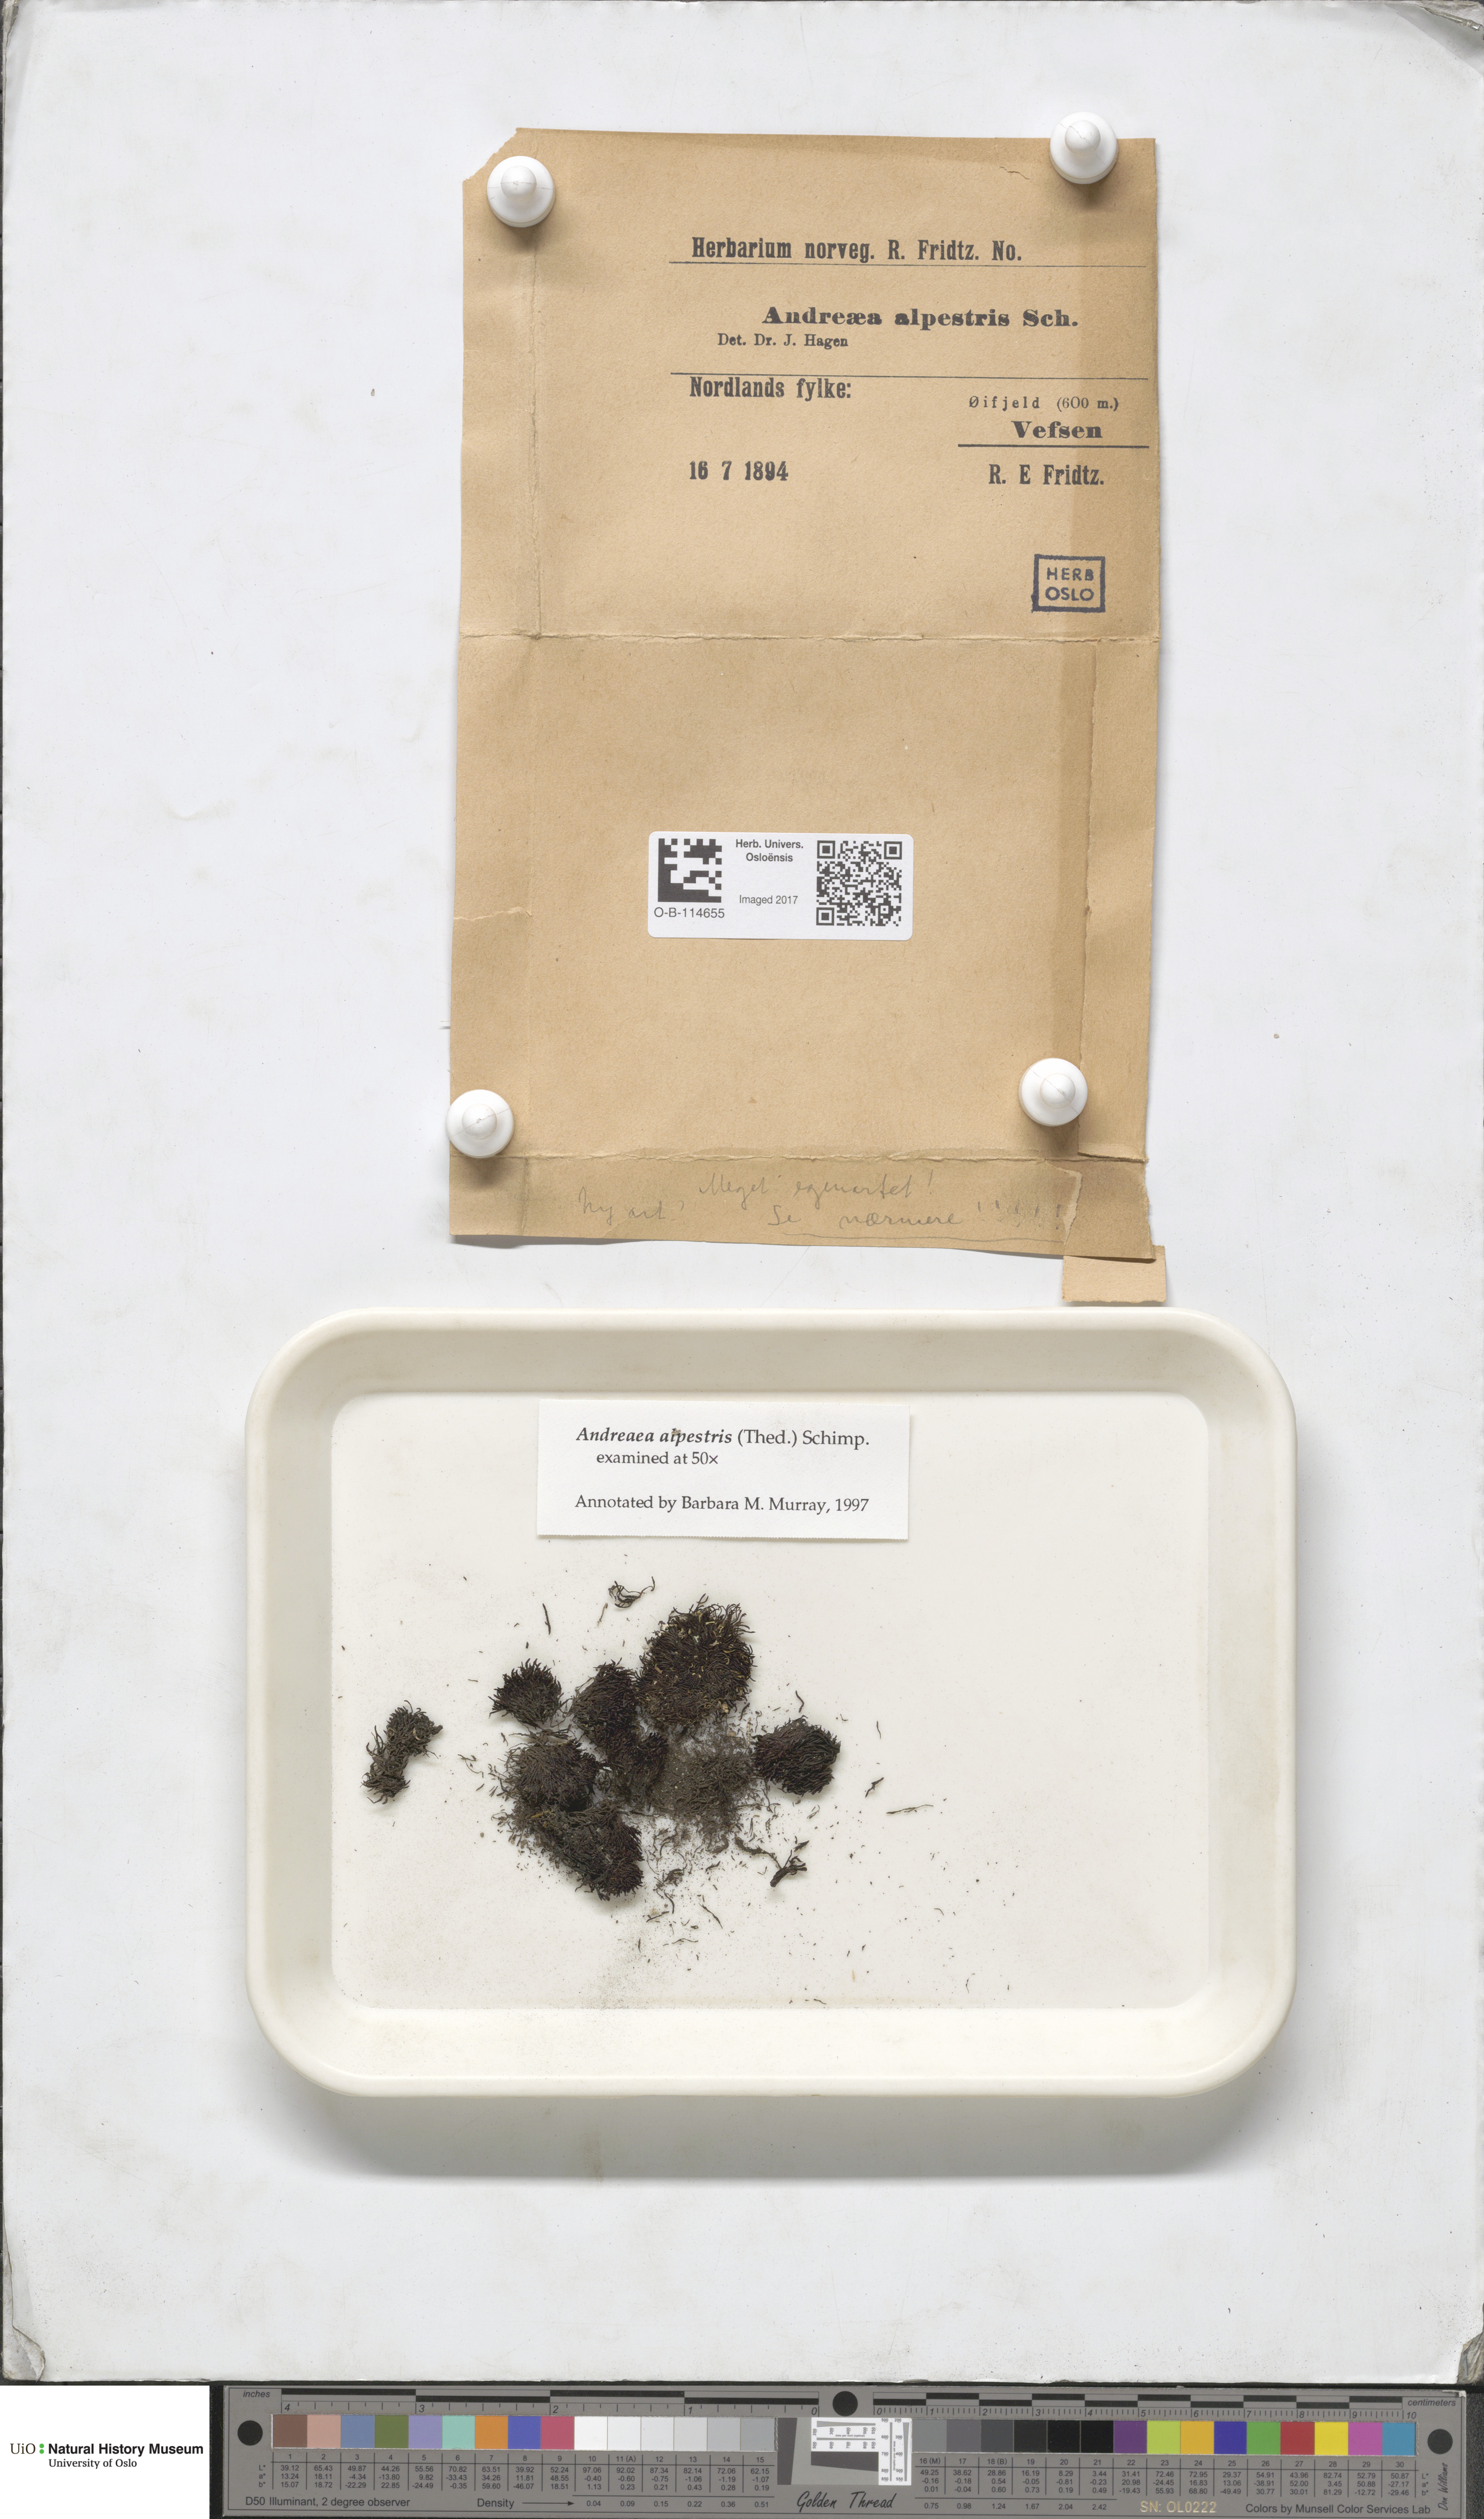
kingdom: Plantae
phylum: Bryophyta
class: Andreaeopsida
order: Andreaeales
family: Andreaeaceae
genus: Andreaea
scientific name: Andreaea alpestris
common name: Slender rock-moss
